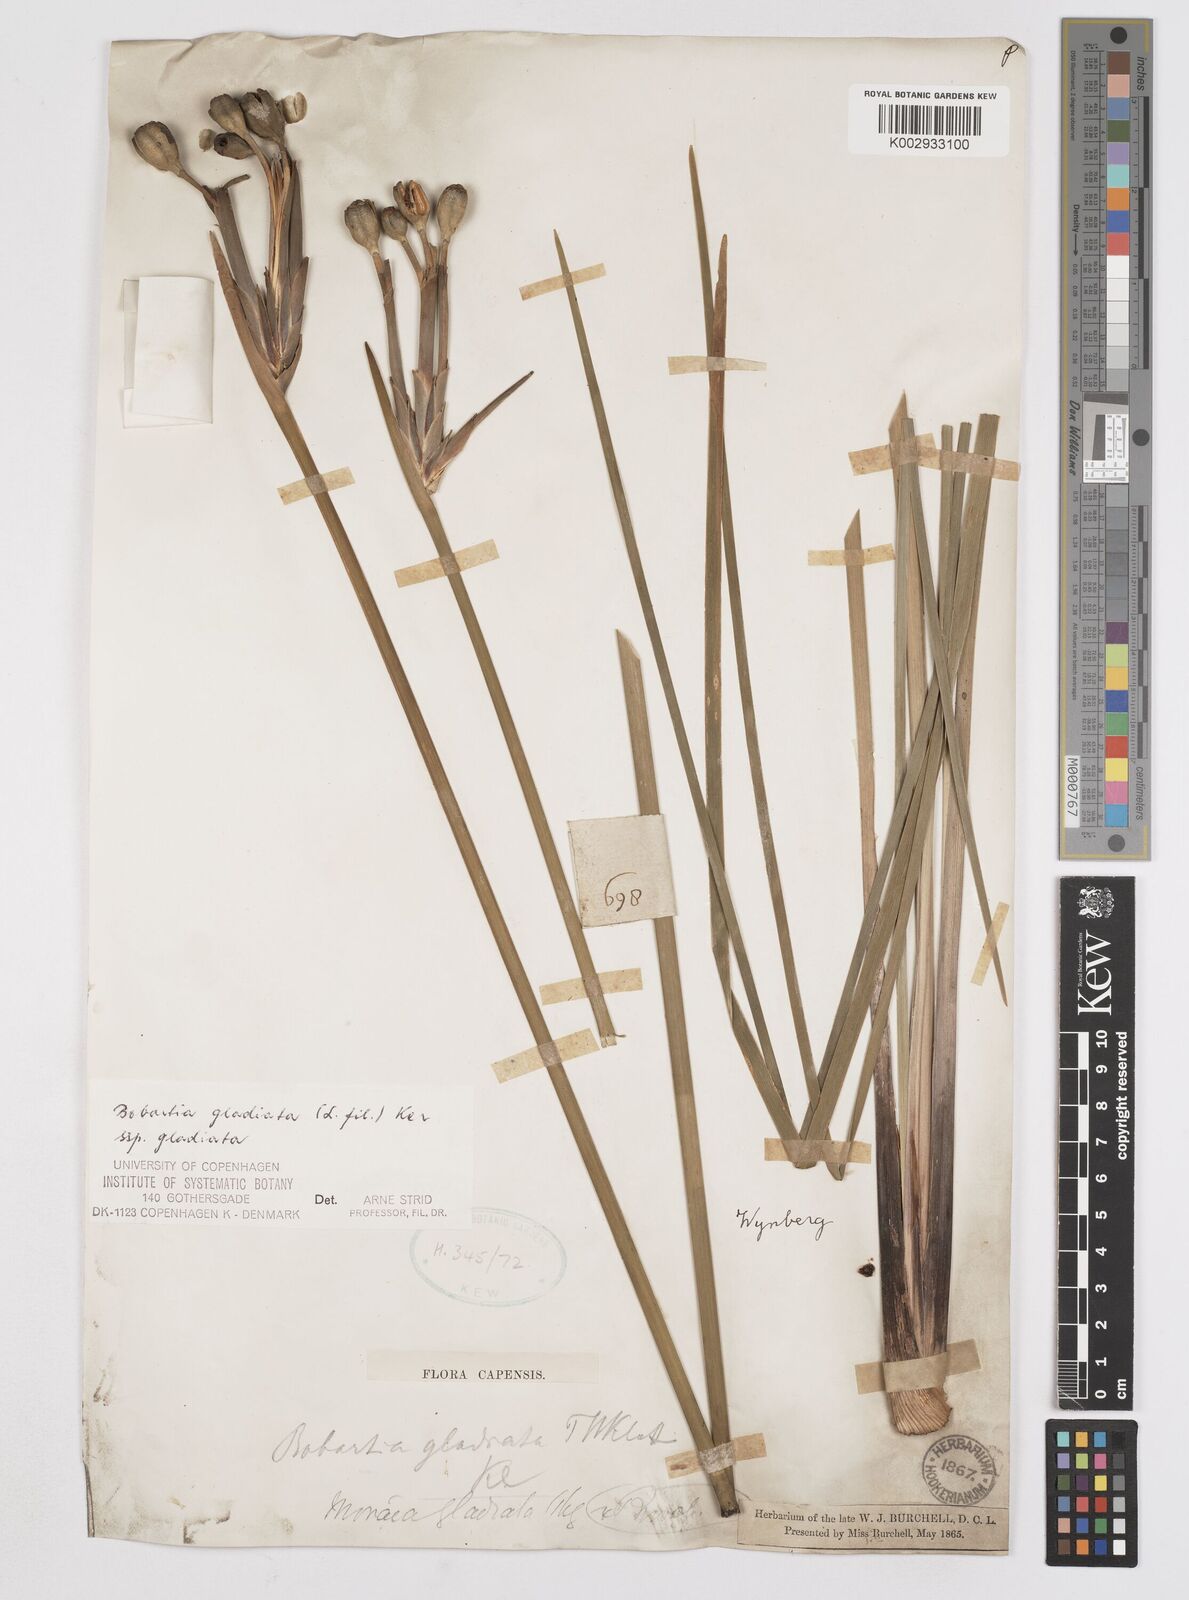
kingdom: Plantae
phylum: Tracheophyta
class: Liliopsida
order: Asparagales
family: Iridaceae
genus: Bobartia
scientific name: Bobartia gladiata
